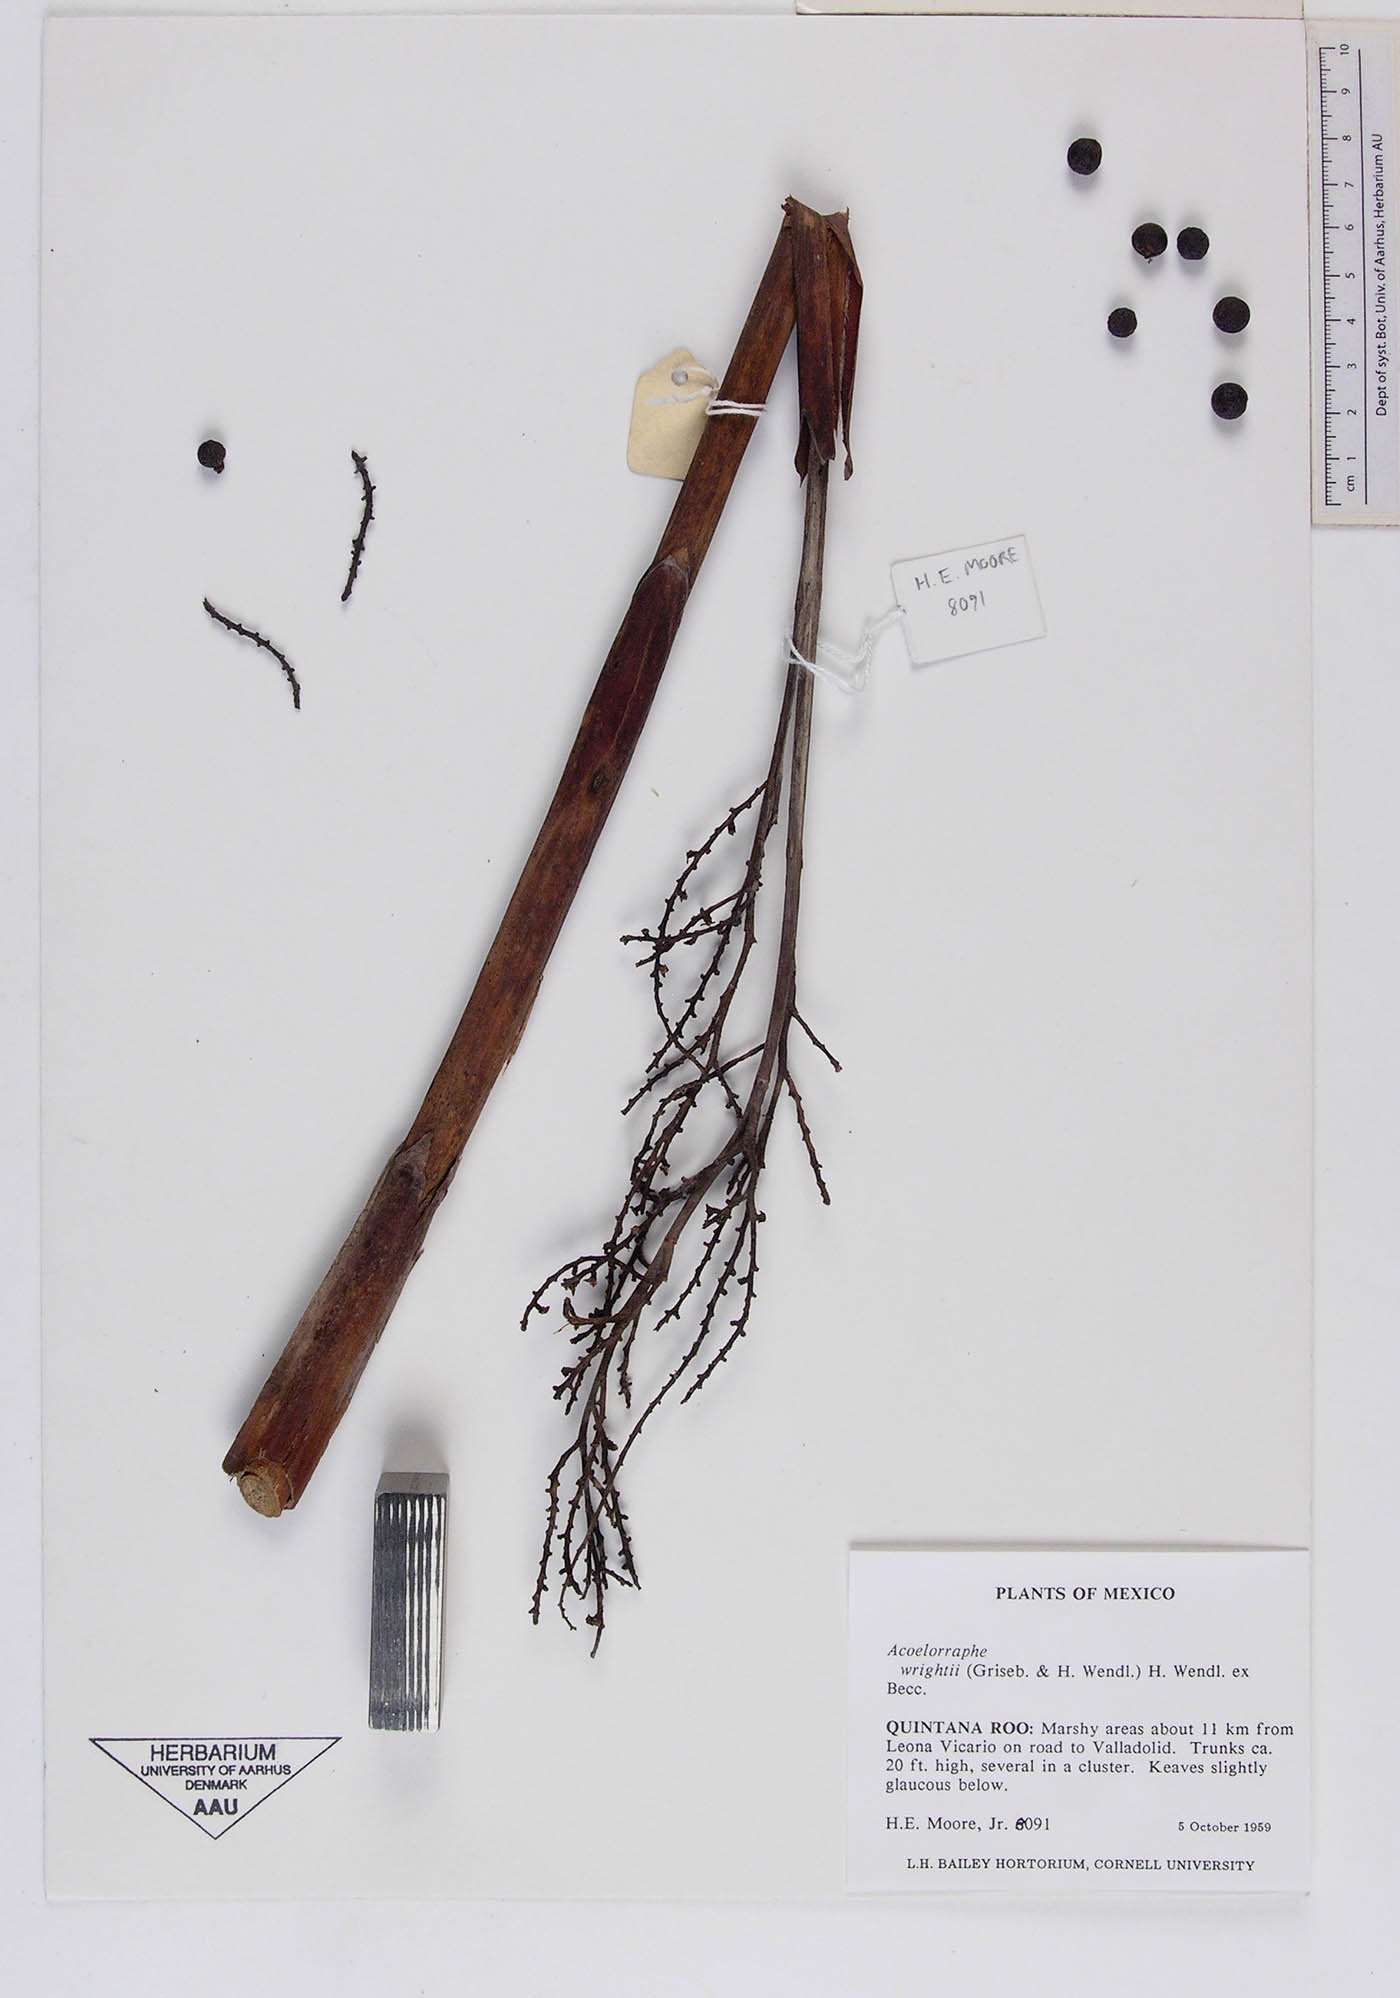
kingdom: Plantae
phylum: Tracheophyta
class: Liliopsida
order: Arecales
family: Arecaceae
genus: Acoelorraphe
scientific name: Acoelorraphe wrightii
